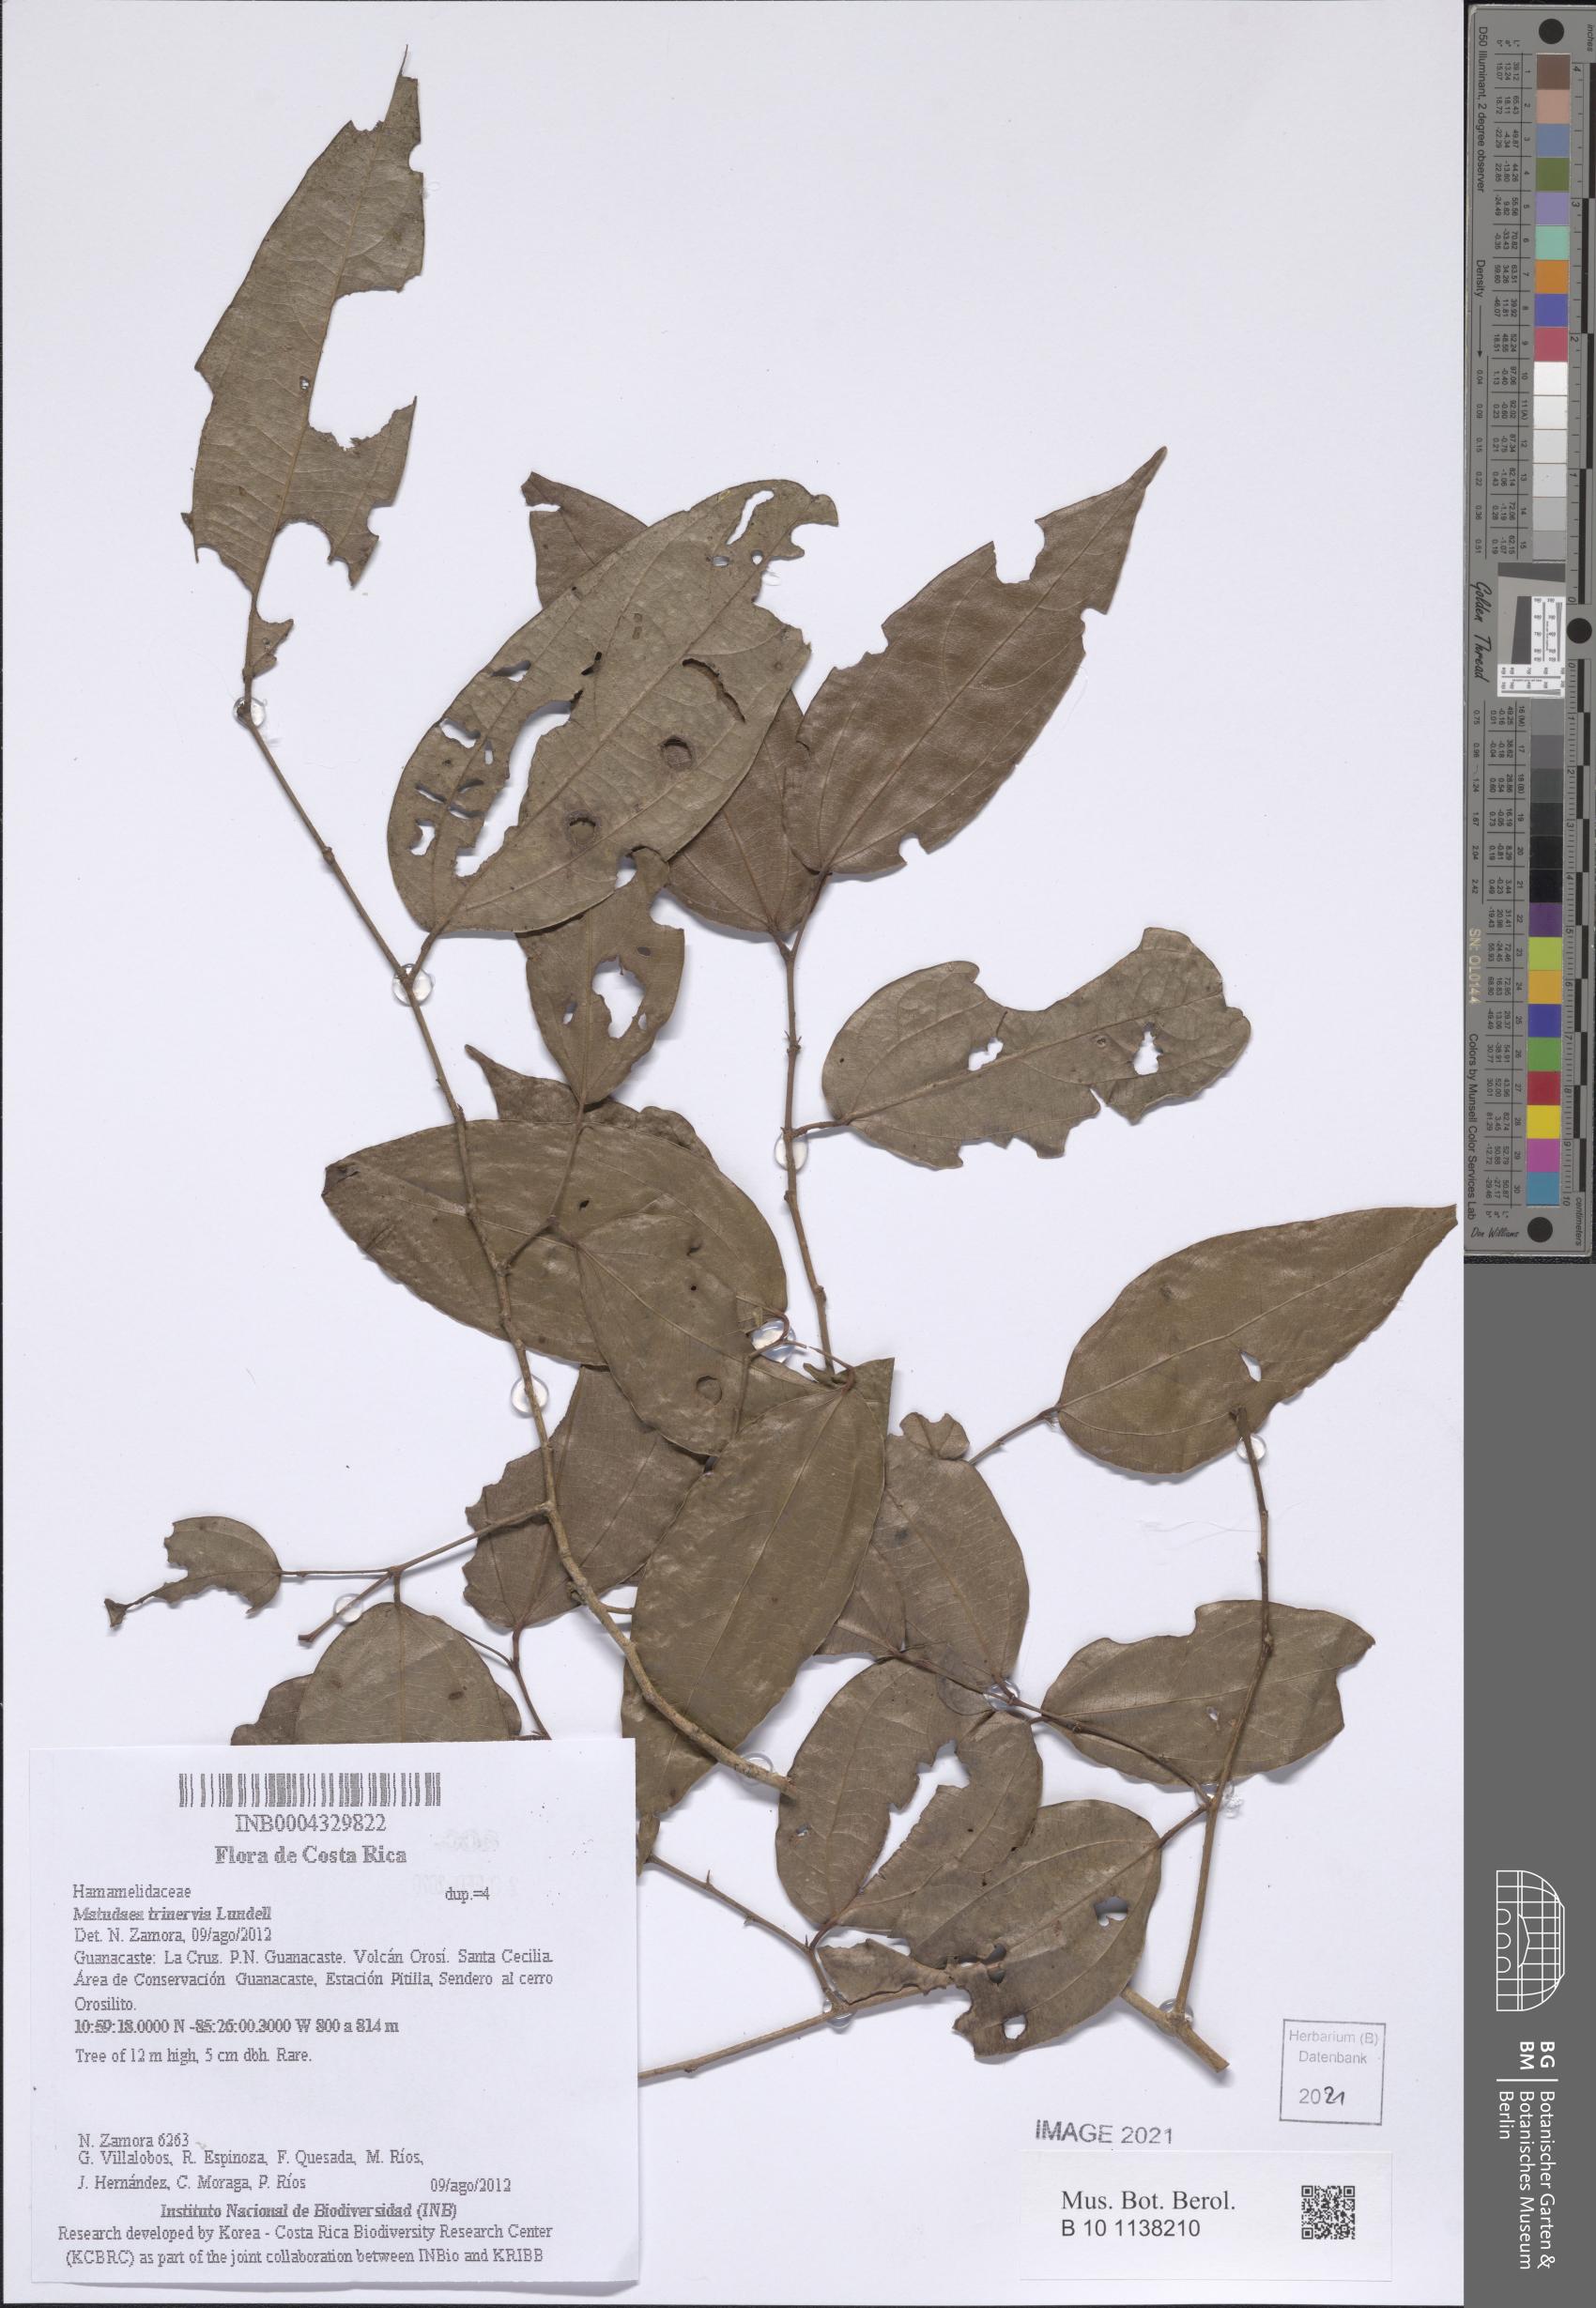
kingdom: Plantae
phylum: Tracheophyta
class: Magnoliopsida
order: Saxifragales
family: Hamamelidaceae
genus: Matudaea
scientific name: Matudaea trinervia
